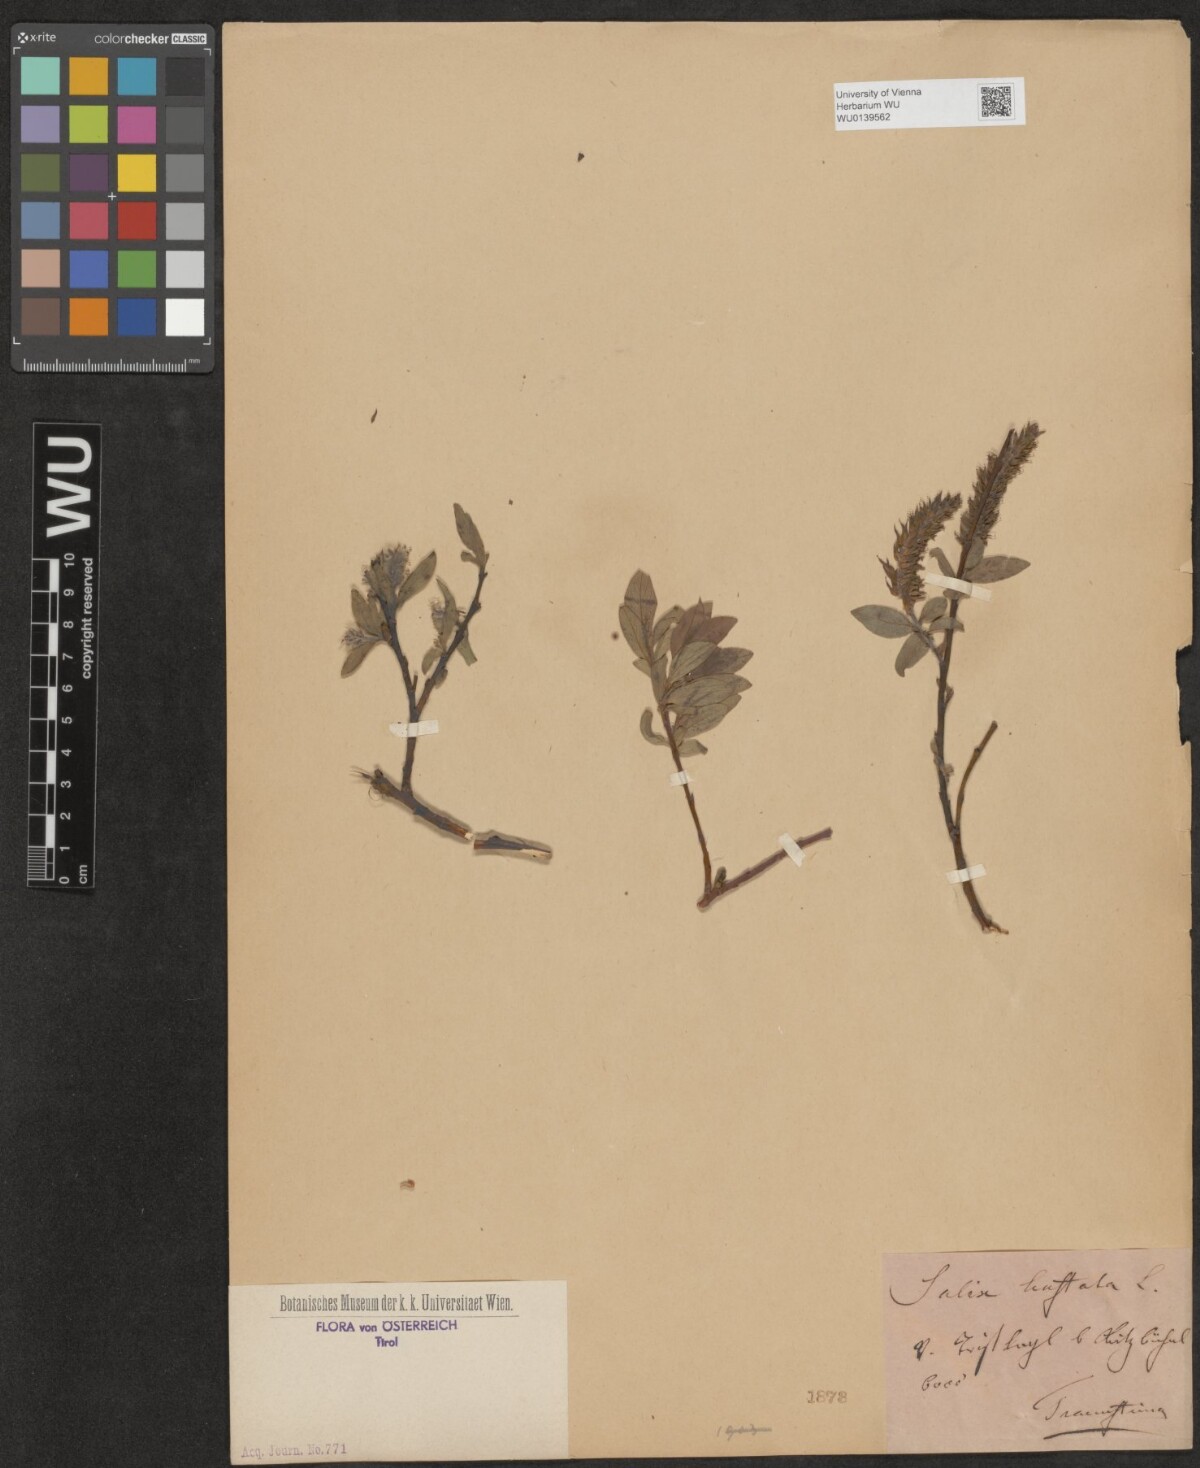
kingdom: Plantae
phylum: Tracheophyta
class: Magnoliopsida
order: Malpighiales
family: Salicaceae
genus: Salix
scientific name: Salix rubens
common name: Hybrid crack willow
